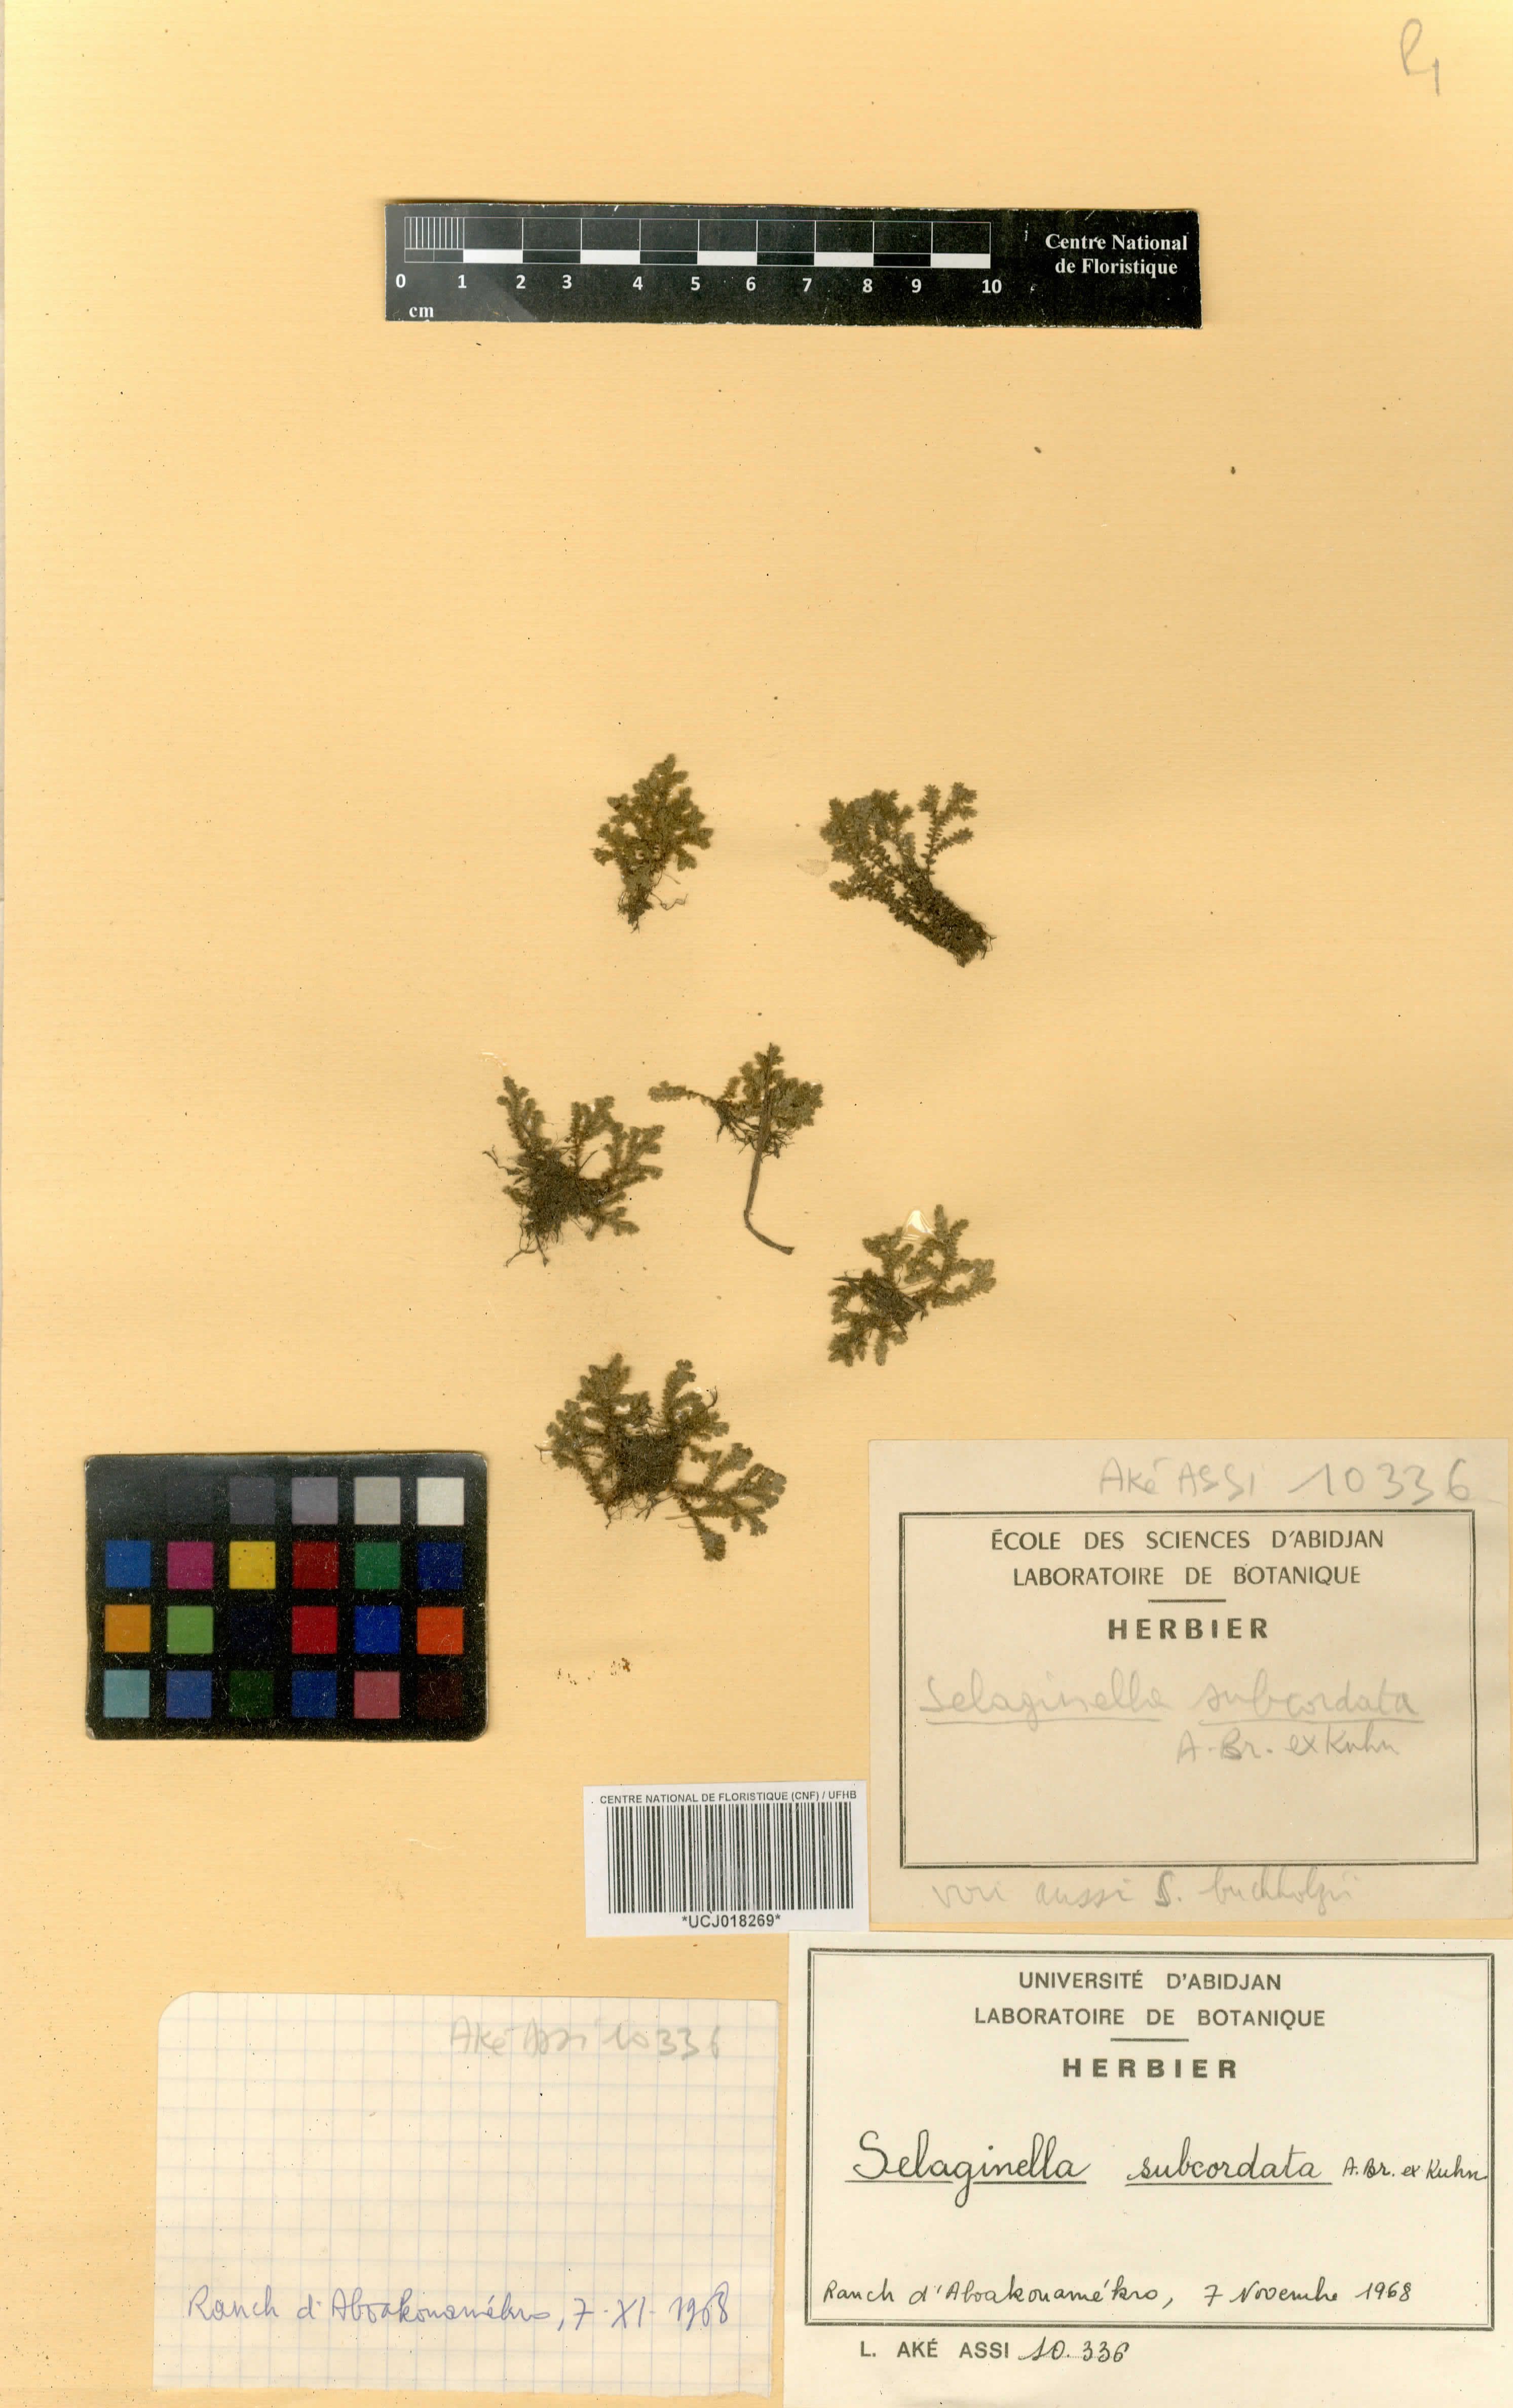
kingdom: Plantae
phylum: Tracheophyta
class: Lycopodiopsida
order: Selaginellales
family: Selaginellaceae
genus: Selaginella
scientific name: Selaginella subcordata
